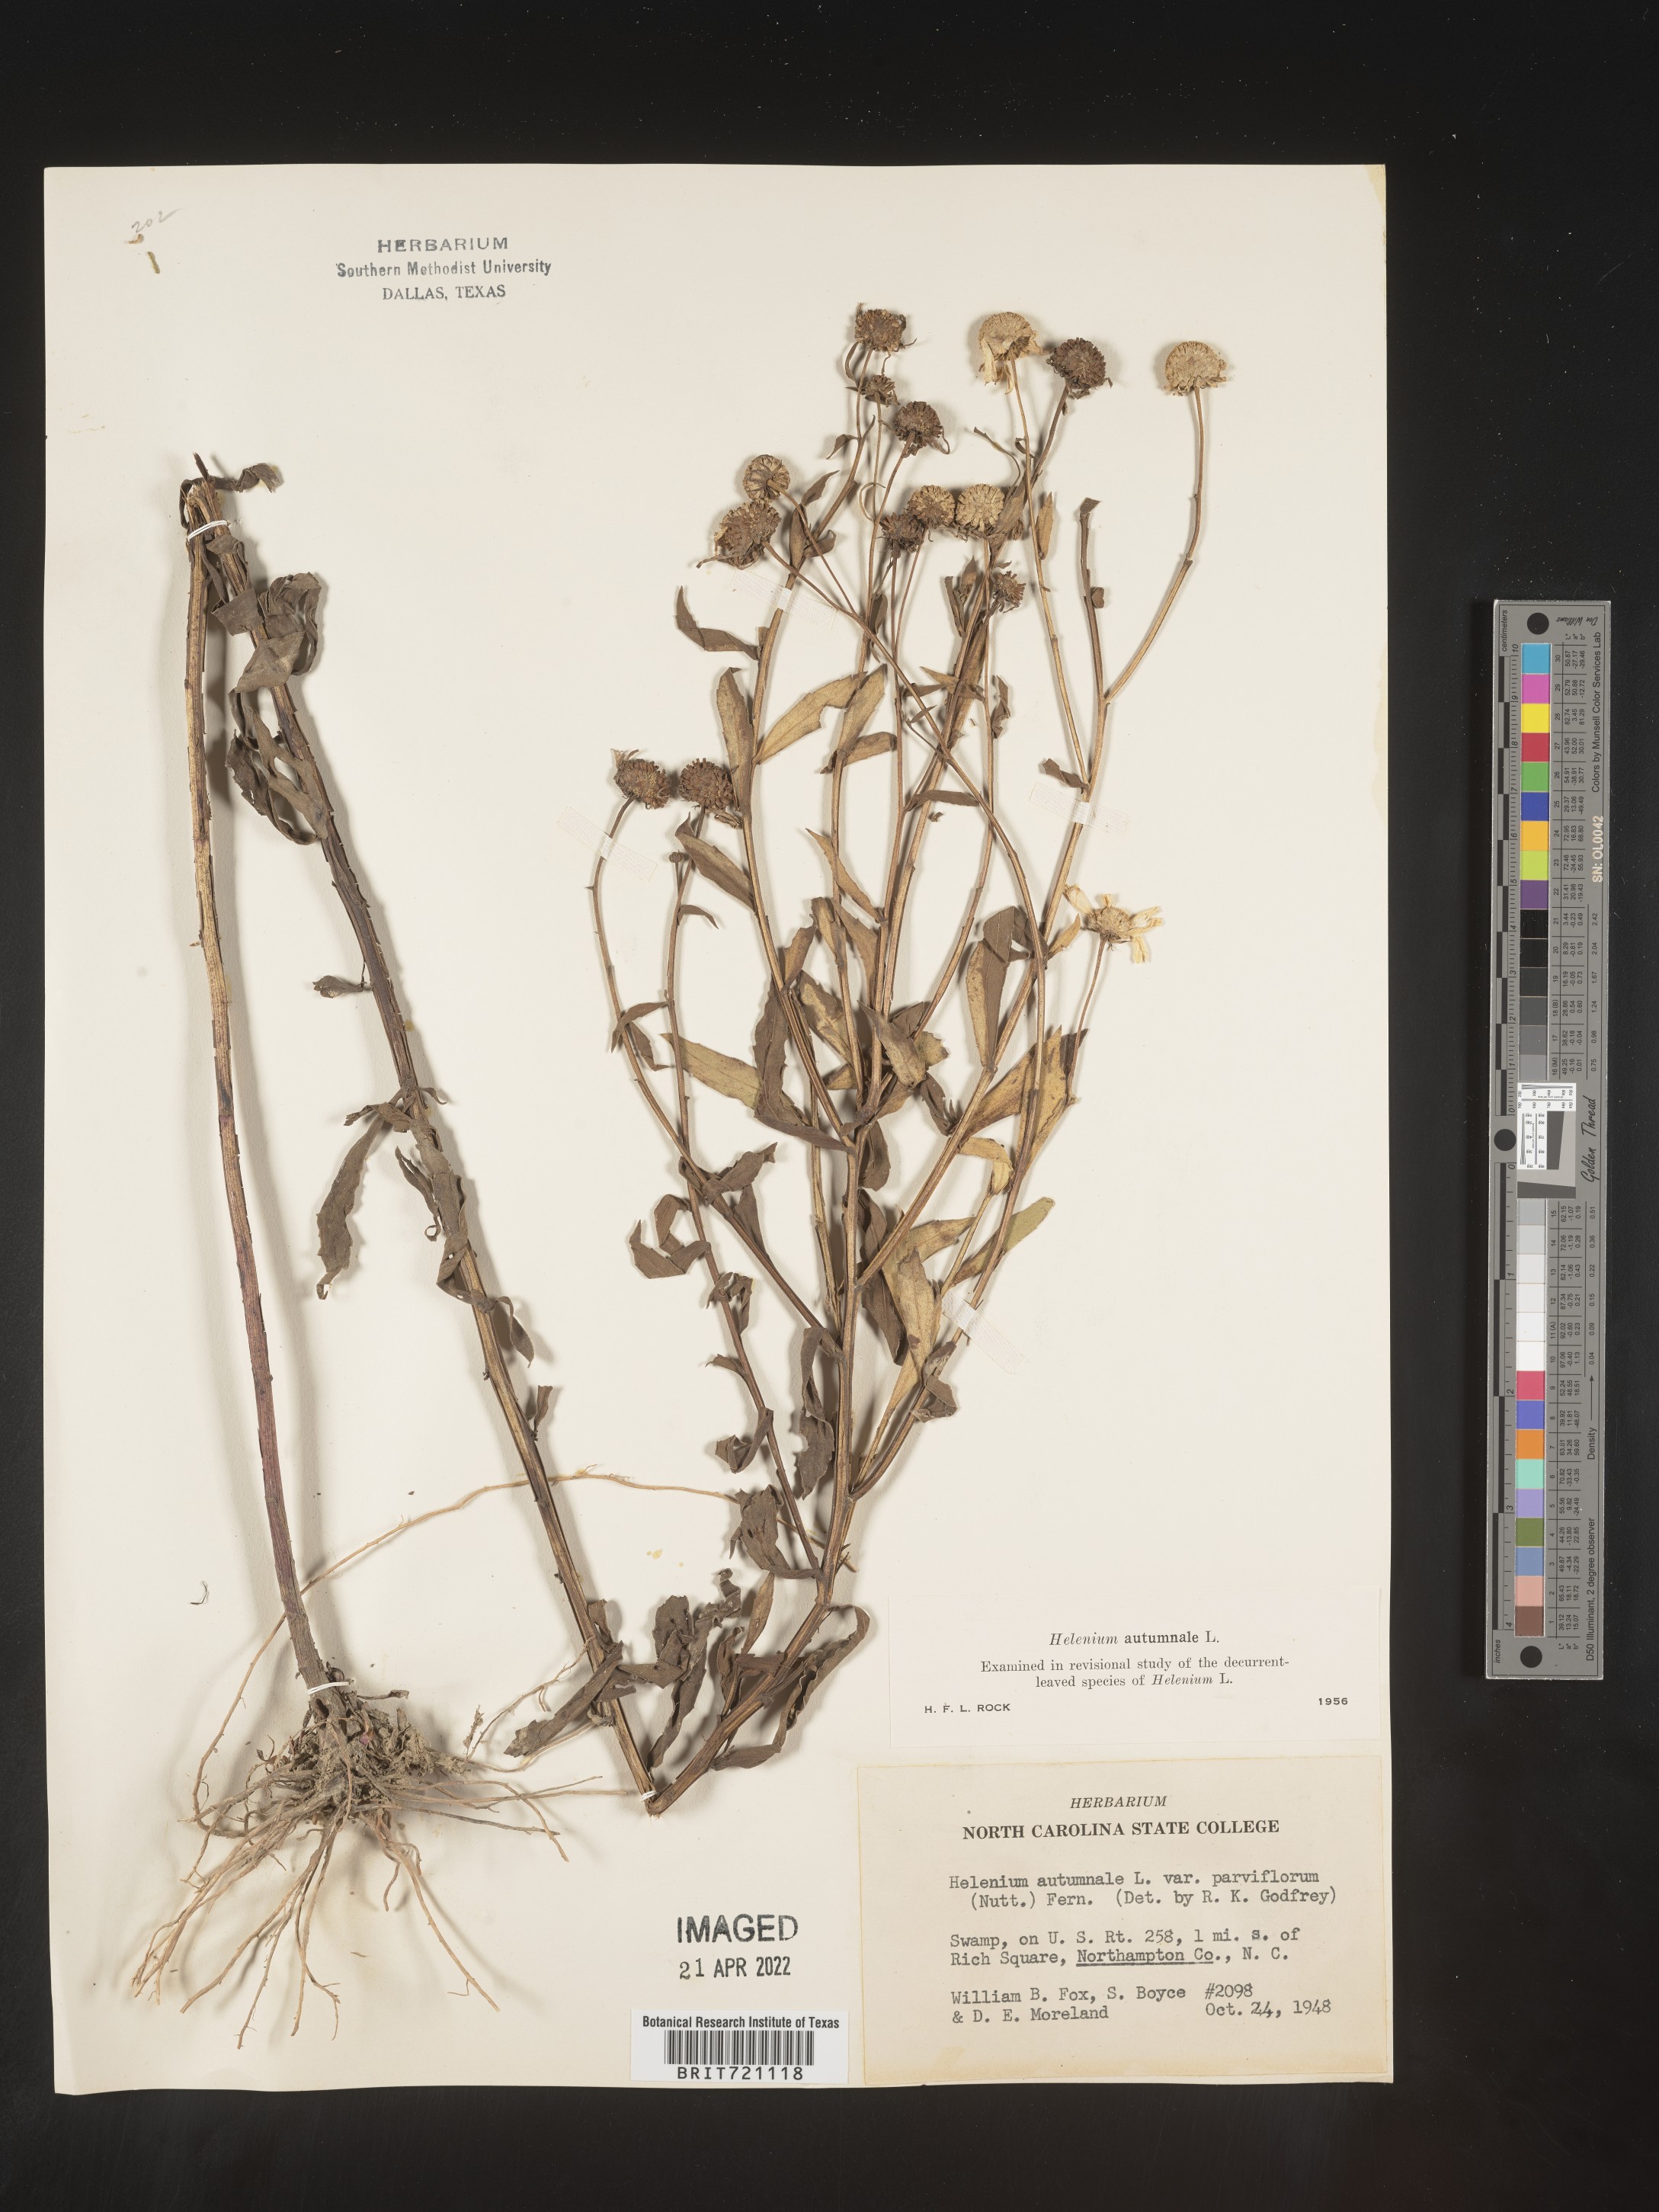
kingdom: Plantae
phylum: Tracheophyta
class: Magnoliopsida
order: Asterales
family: Asteraceae
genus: Helenium
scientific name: Helenium autumnale
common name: Sneezeweed
